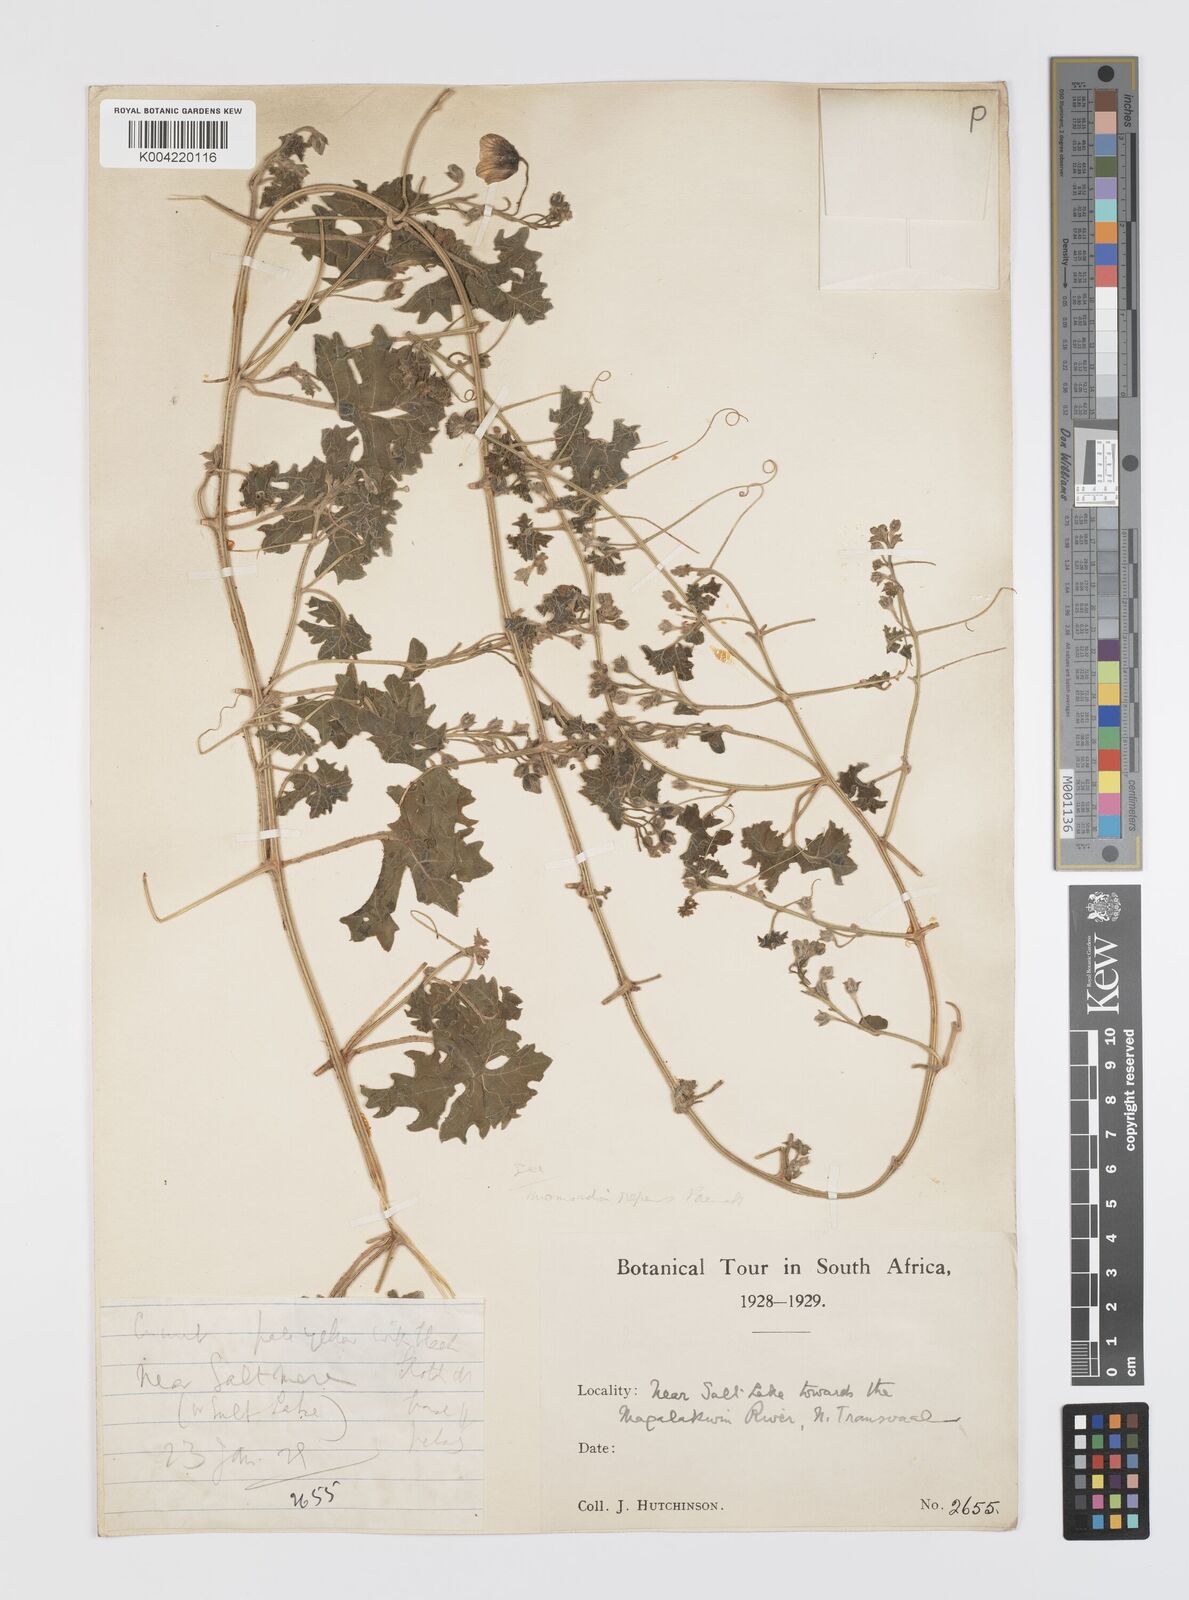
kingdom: Plantae
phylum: Tracheophyta
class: Magnoliopsida
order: Cucurbitales
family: Cucurbitaceae
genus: Momordica
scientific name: Momordica repens
